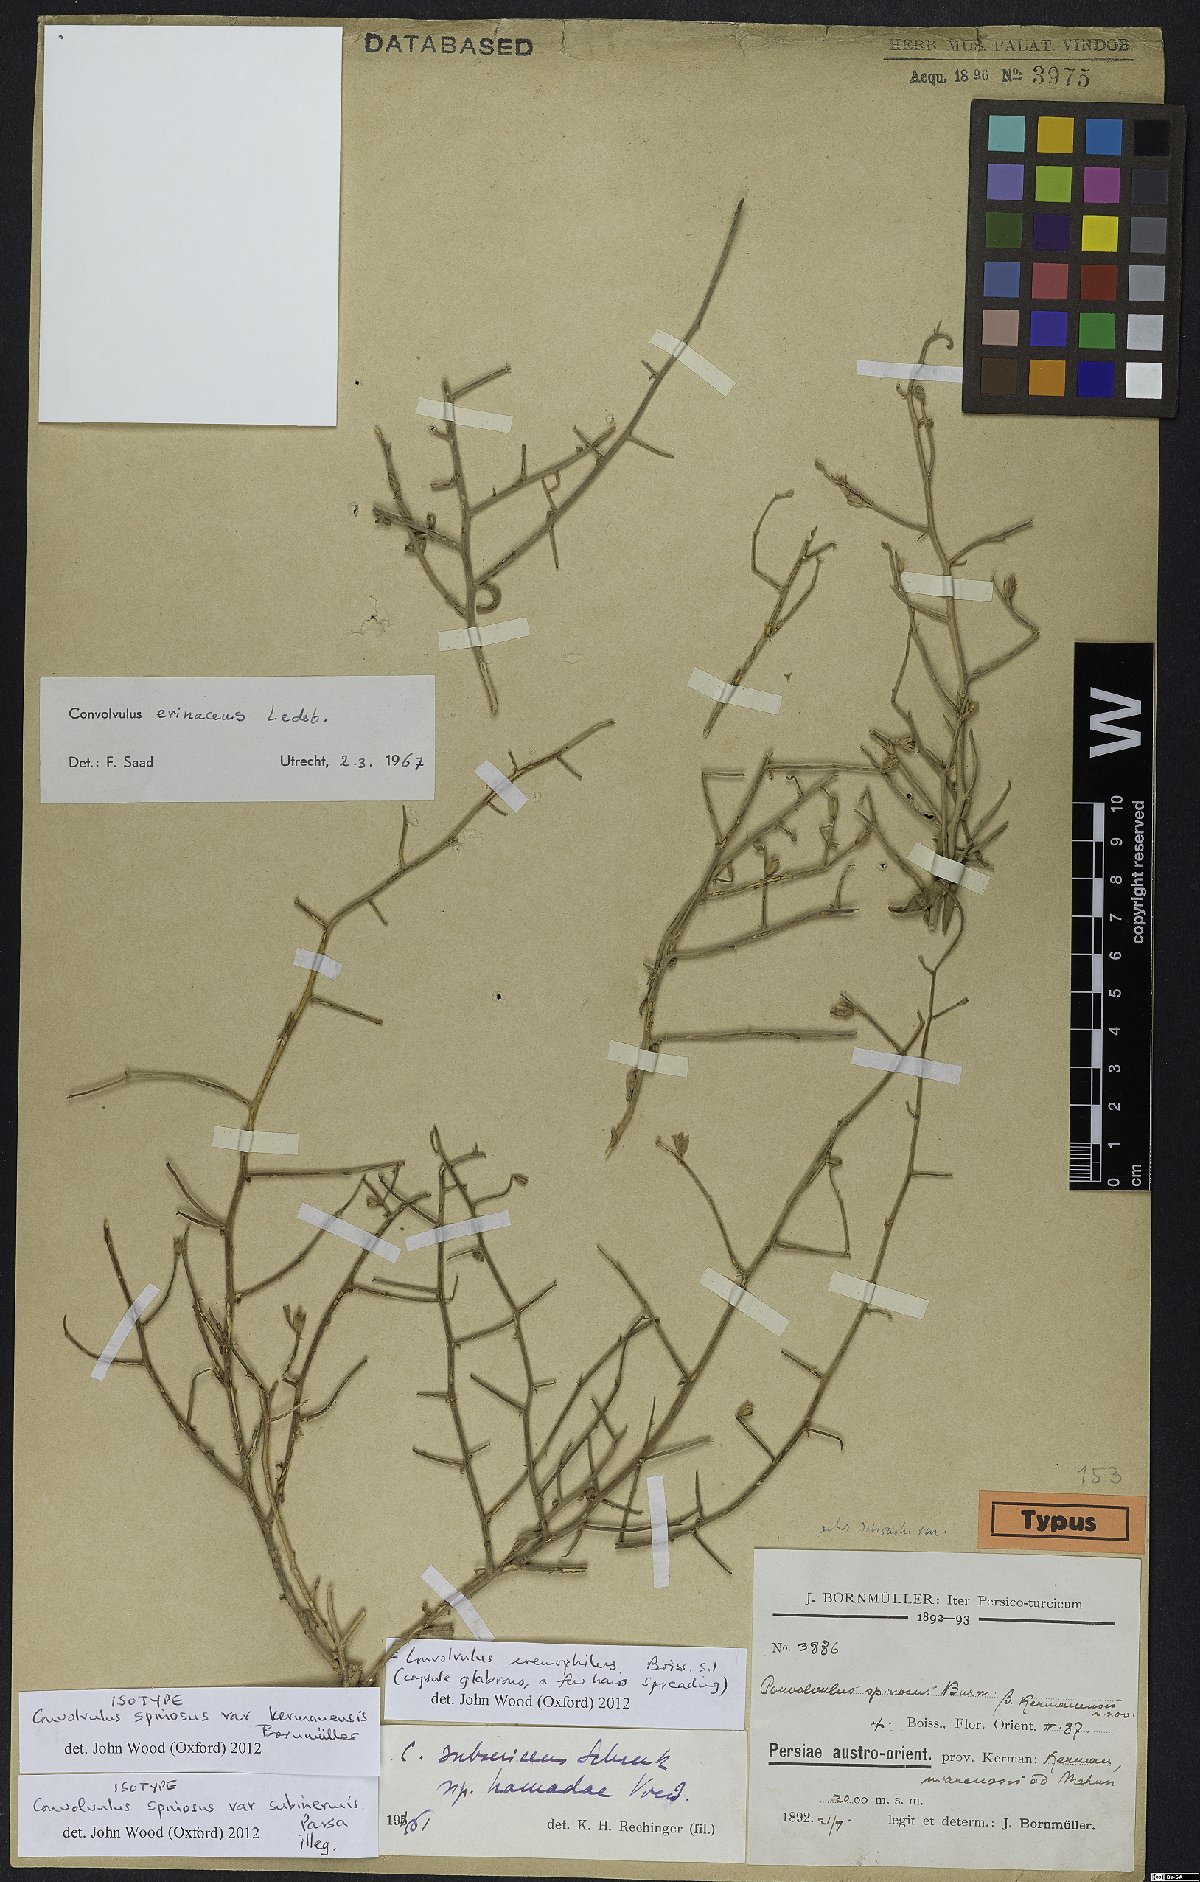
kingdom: Plantae
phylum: Tracheophyta
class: Magnoliopsida
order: Solanales
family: Convolvulaceae
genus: Convolvulus
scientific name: Convolvulus eremophilus
